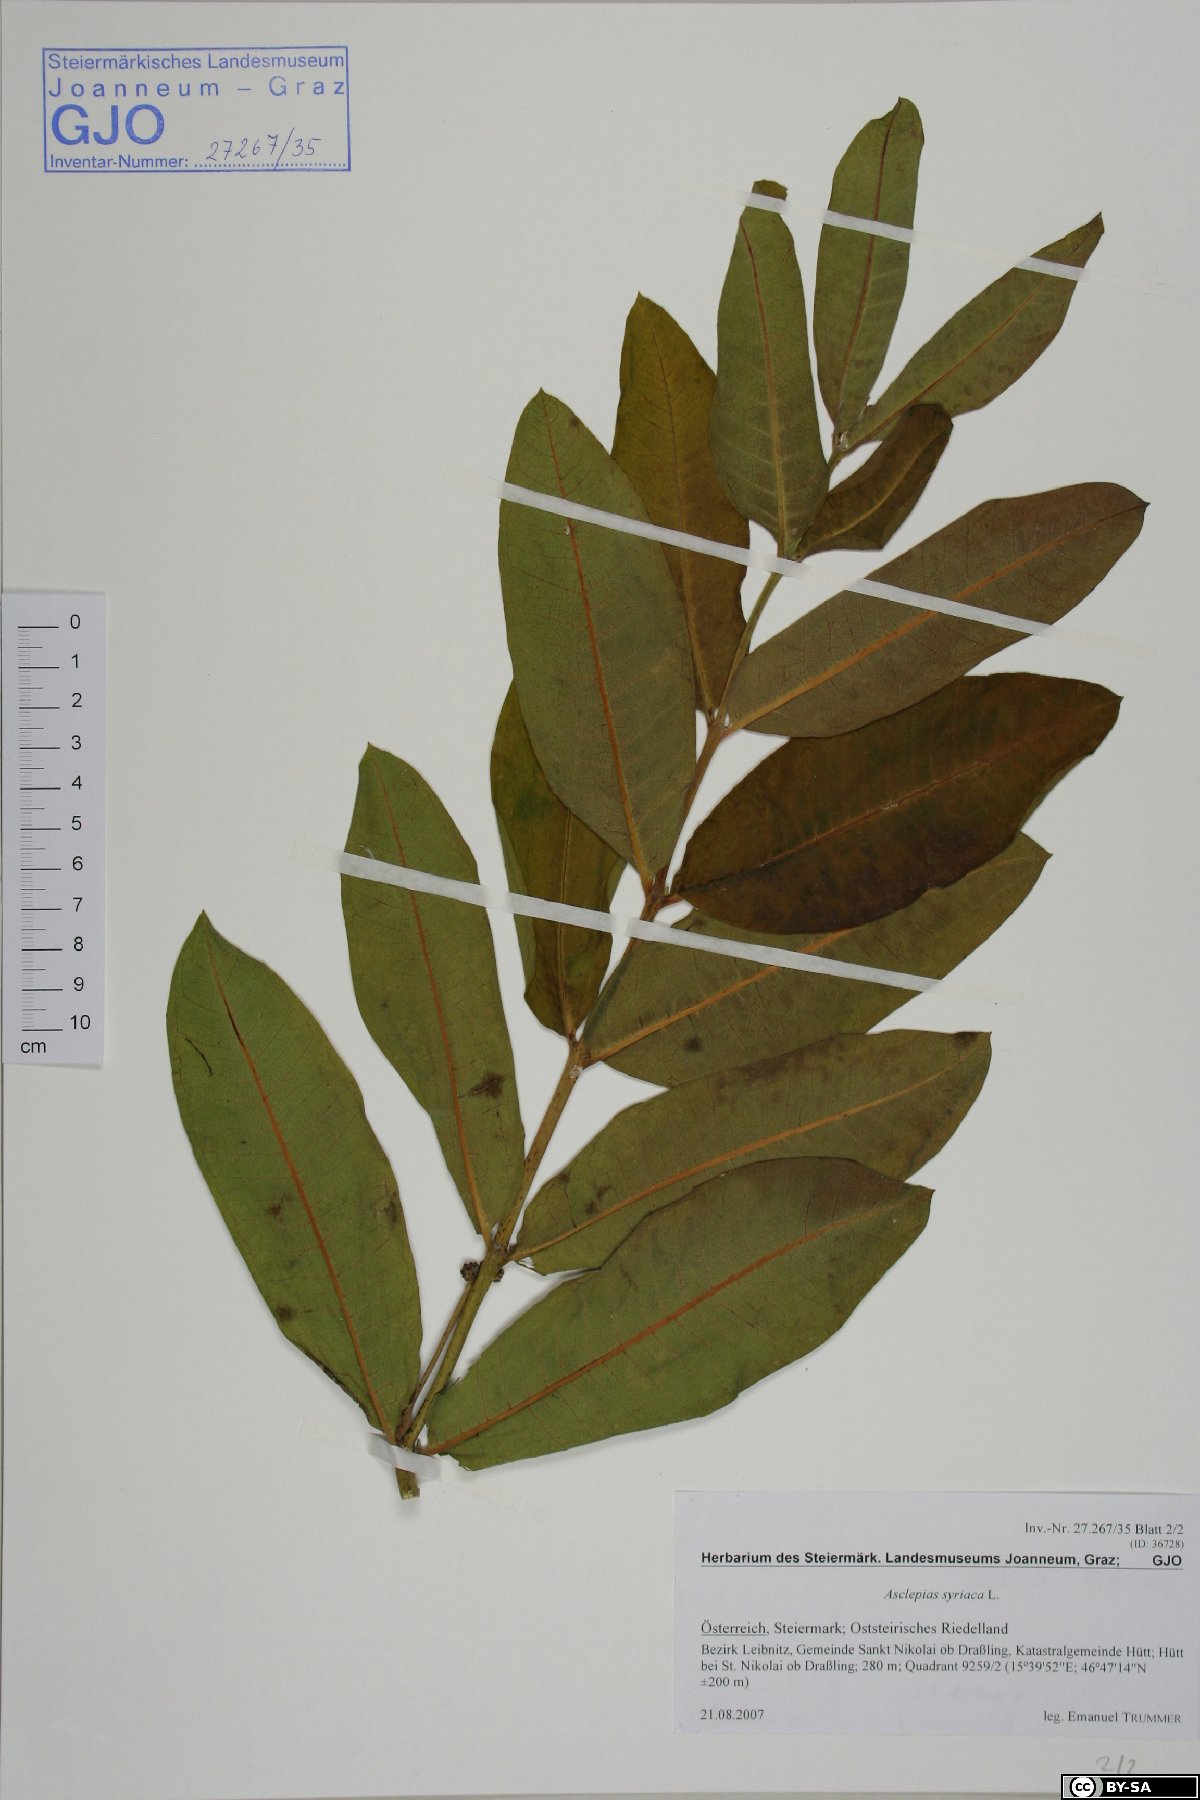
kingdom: Plantae
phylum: Tracheophyta
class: Magnoliopsida
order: Gentianales
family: Apocynaceae
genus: Asclepias
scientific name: Asclepias syriaca
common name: Common milkweed
